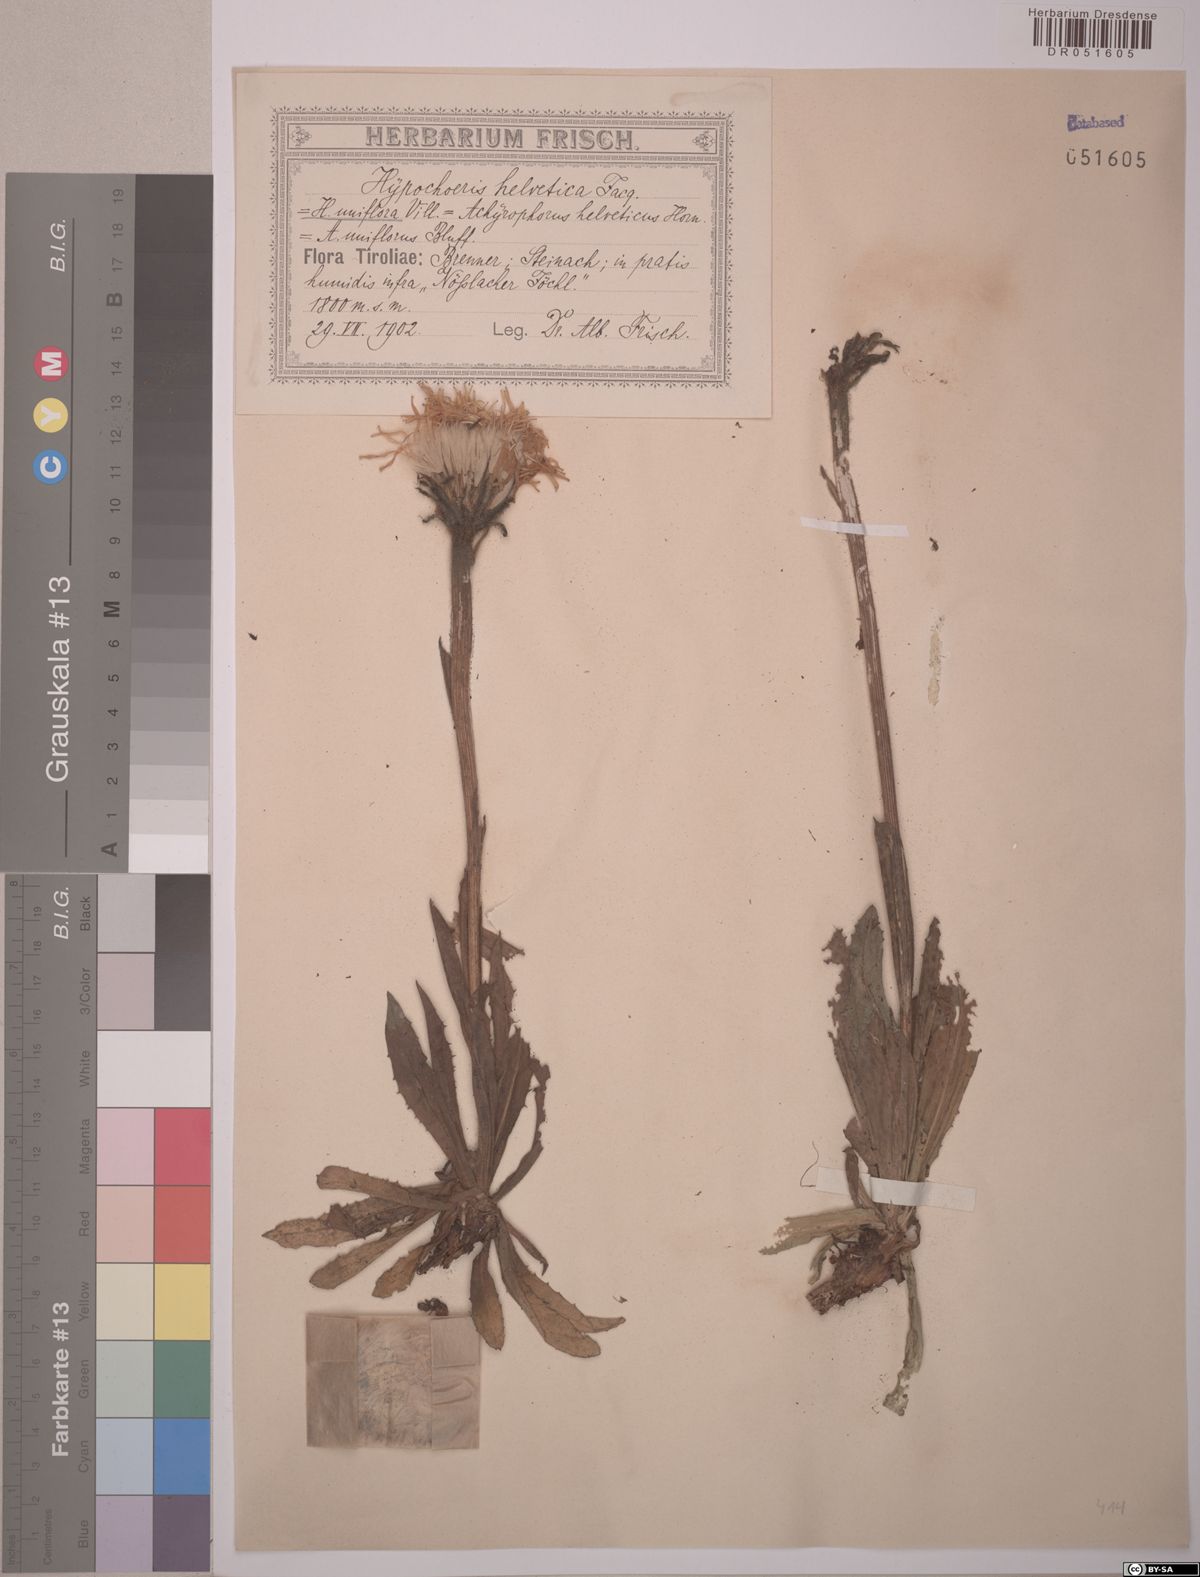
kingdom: Plantae
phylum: Tracheophyta
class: Magnoliopsida
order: Asterales
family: Asteraceae
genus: Trommsdorffia
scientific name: Trommsdorffia uniflora
